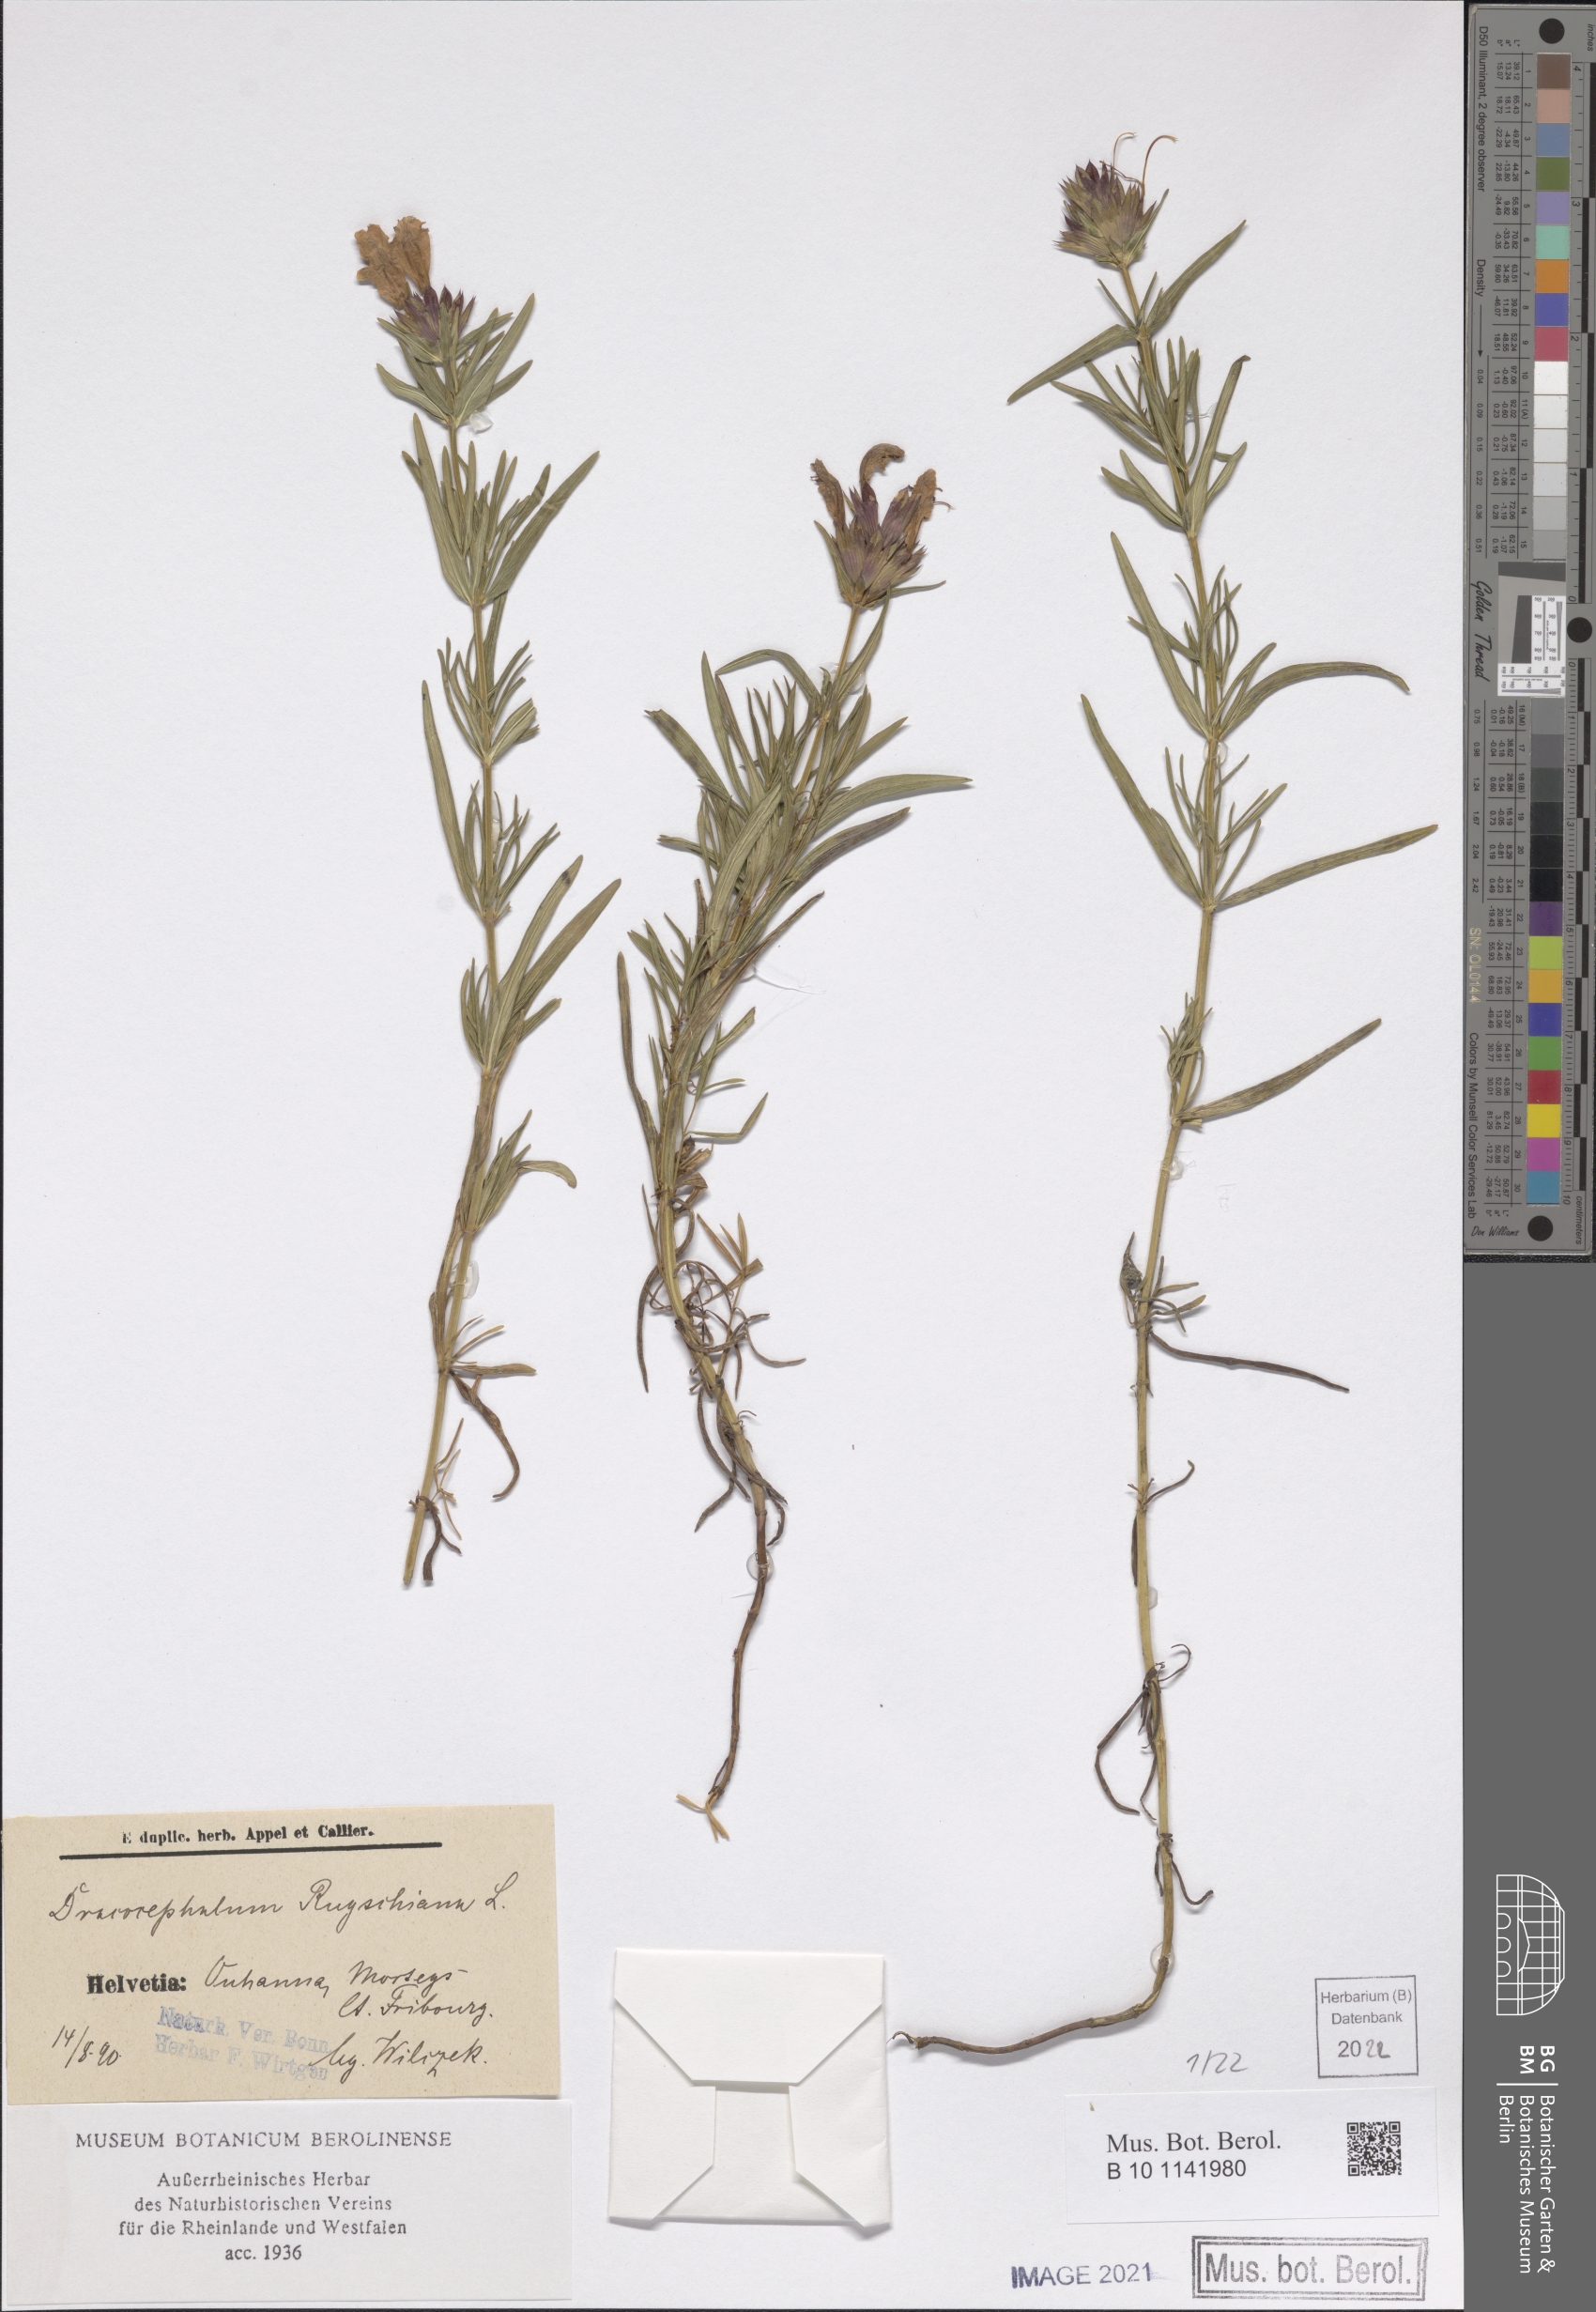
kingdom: Plantae
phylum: Tracheophyta
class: Magnoliopsida
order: Lamiales
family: Lamiaceae
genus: Dracocephalum
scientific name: Dracocephalum ruyschiana
